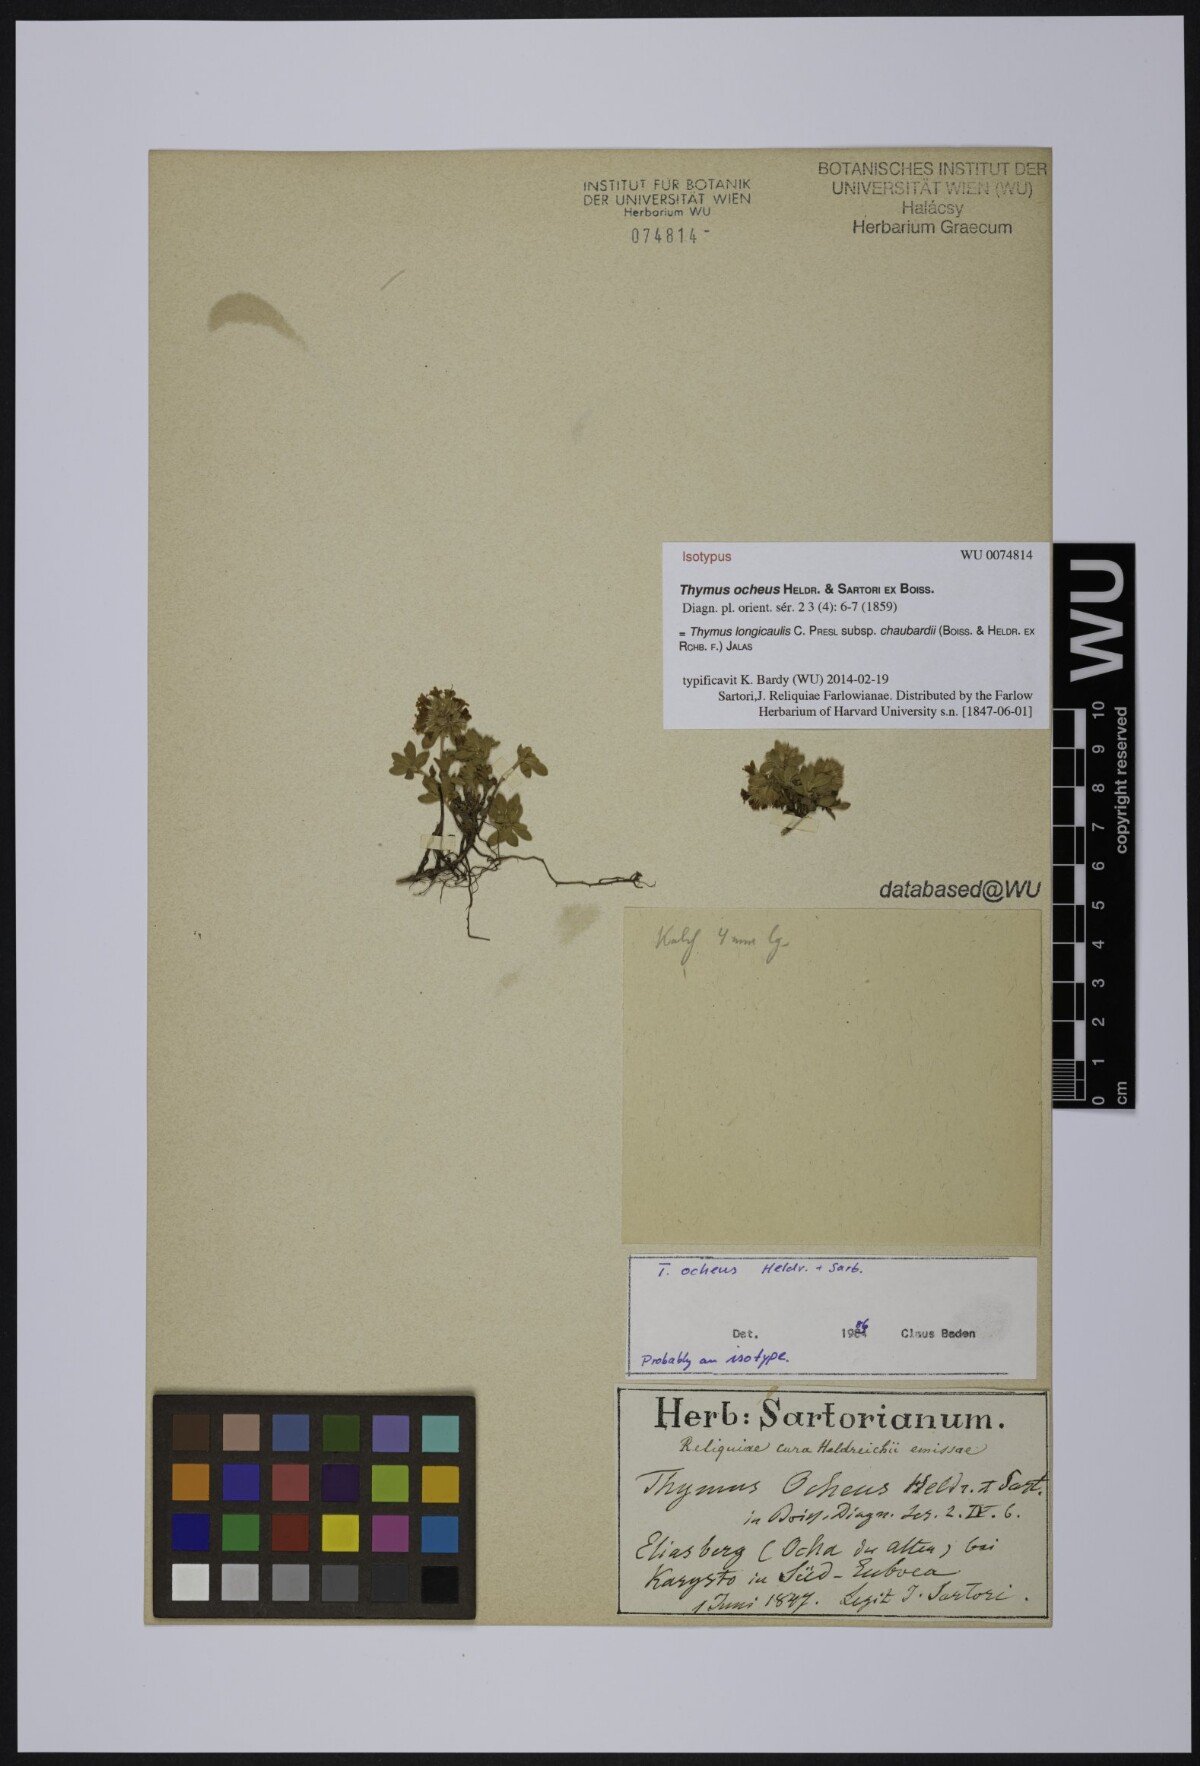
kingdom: Plantae
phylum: Tracheophyta
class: Magnoliopsida
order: Lamiales
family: Lamiaceae
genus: Thymus
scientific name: Thymus longicaulis
